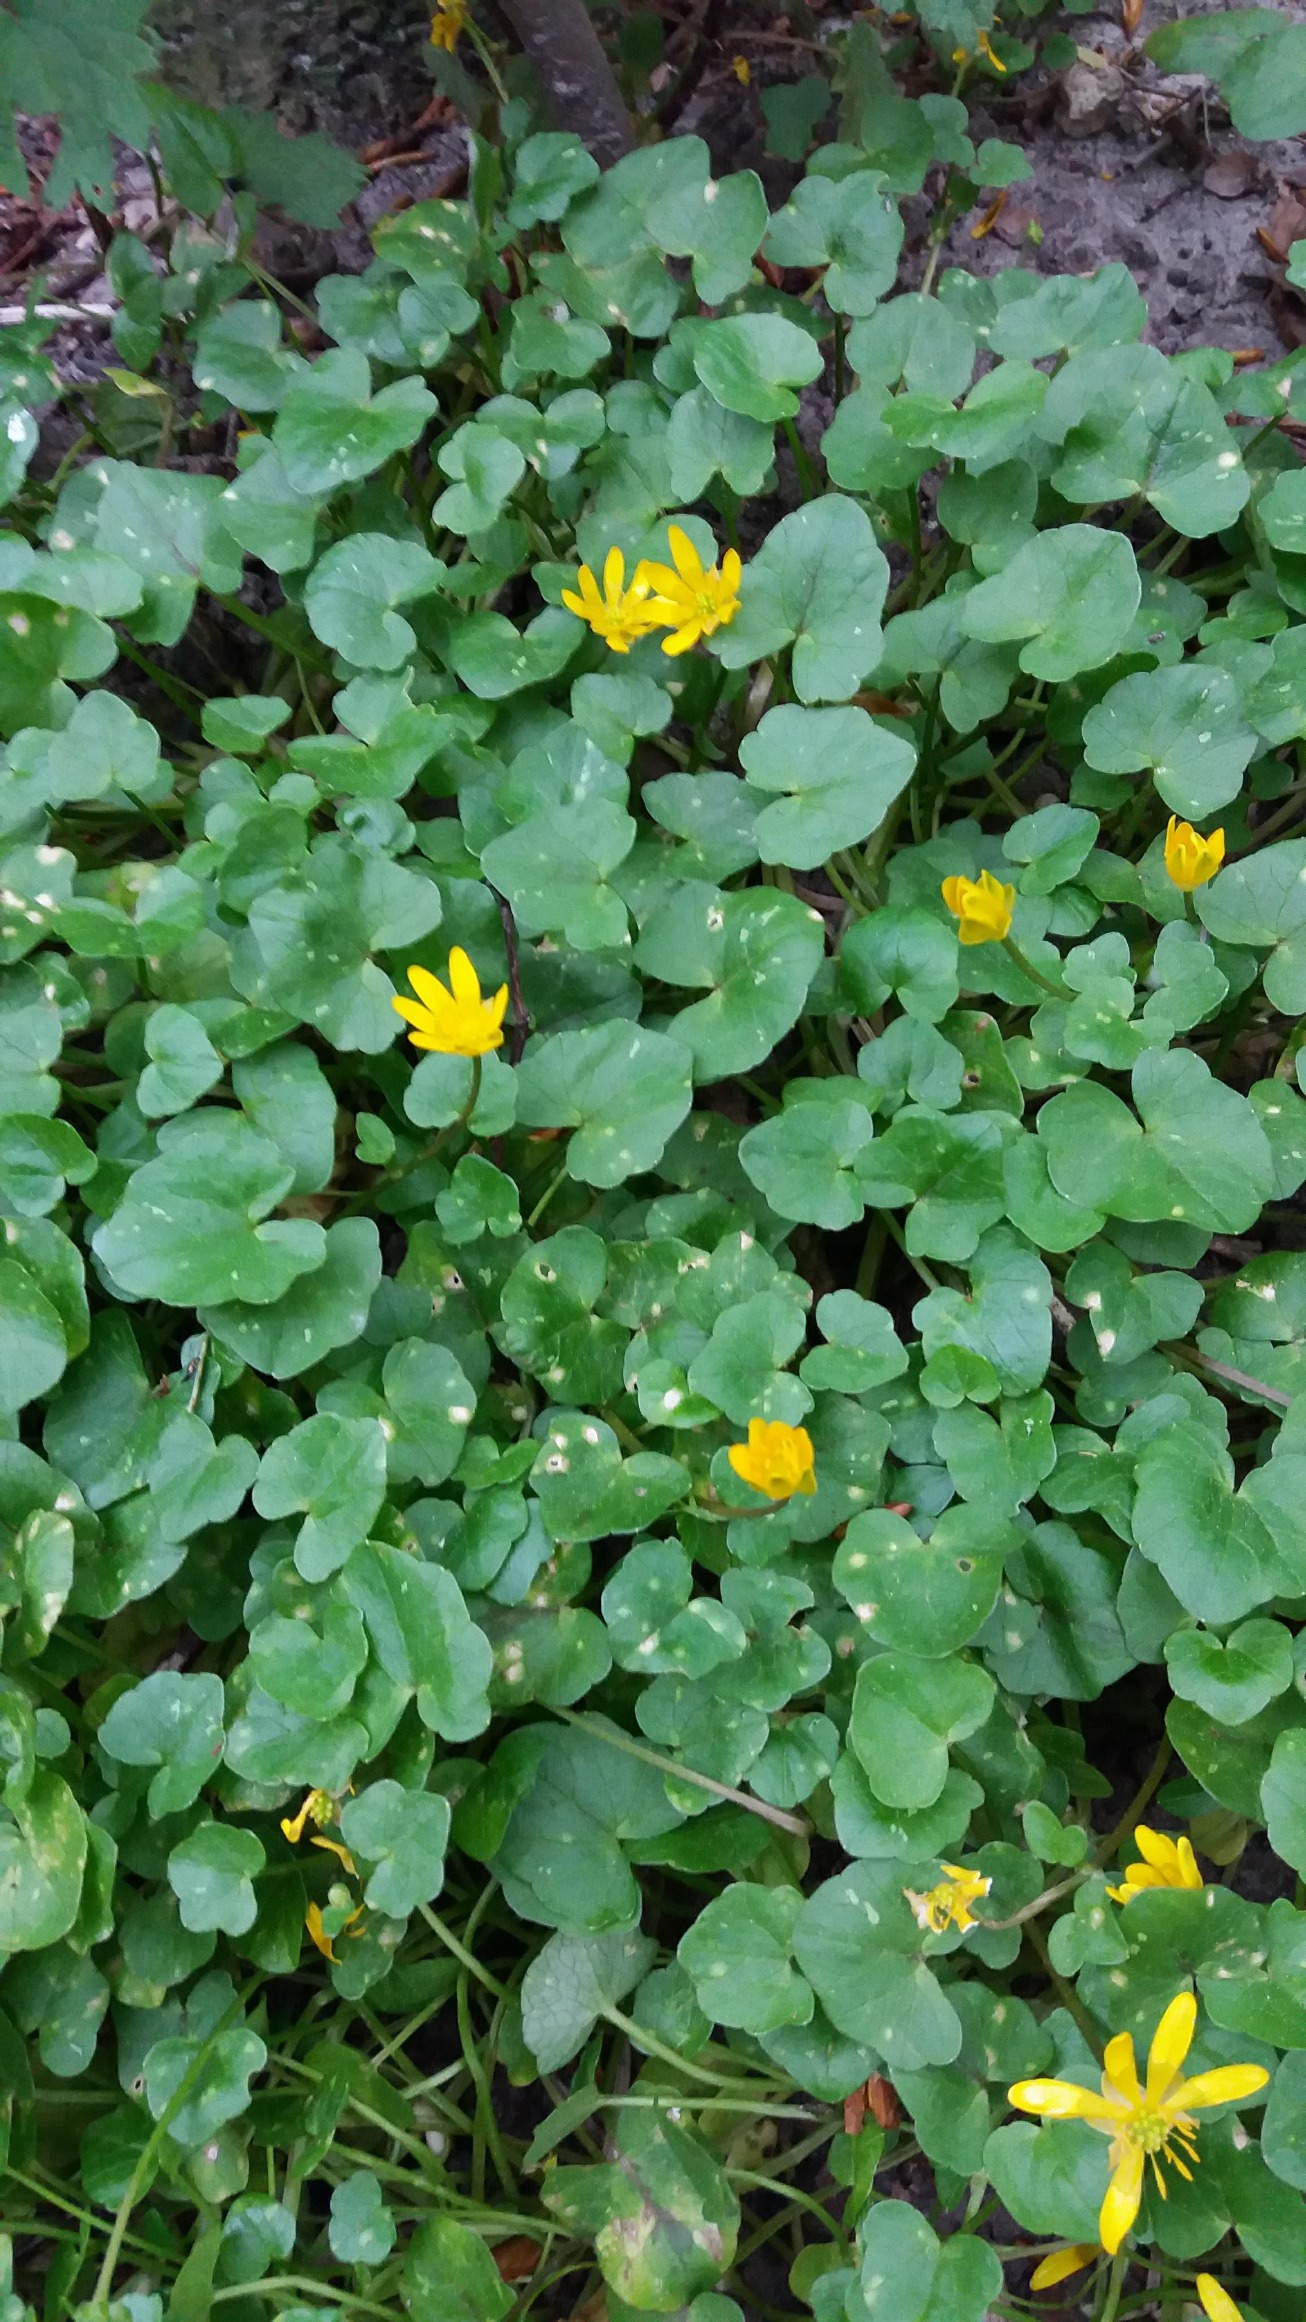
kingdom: Plantae
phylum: Tracheophyta
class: Magnoliopsida
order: Ranunculales
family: Ranunculaceae
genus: Ficaria
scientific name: Ficaria verna
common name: Vorterod
